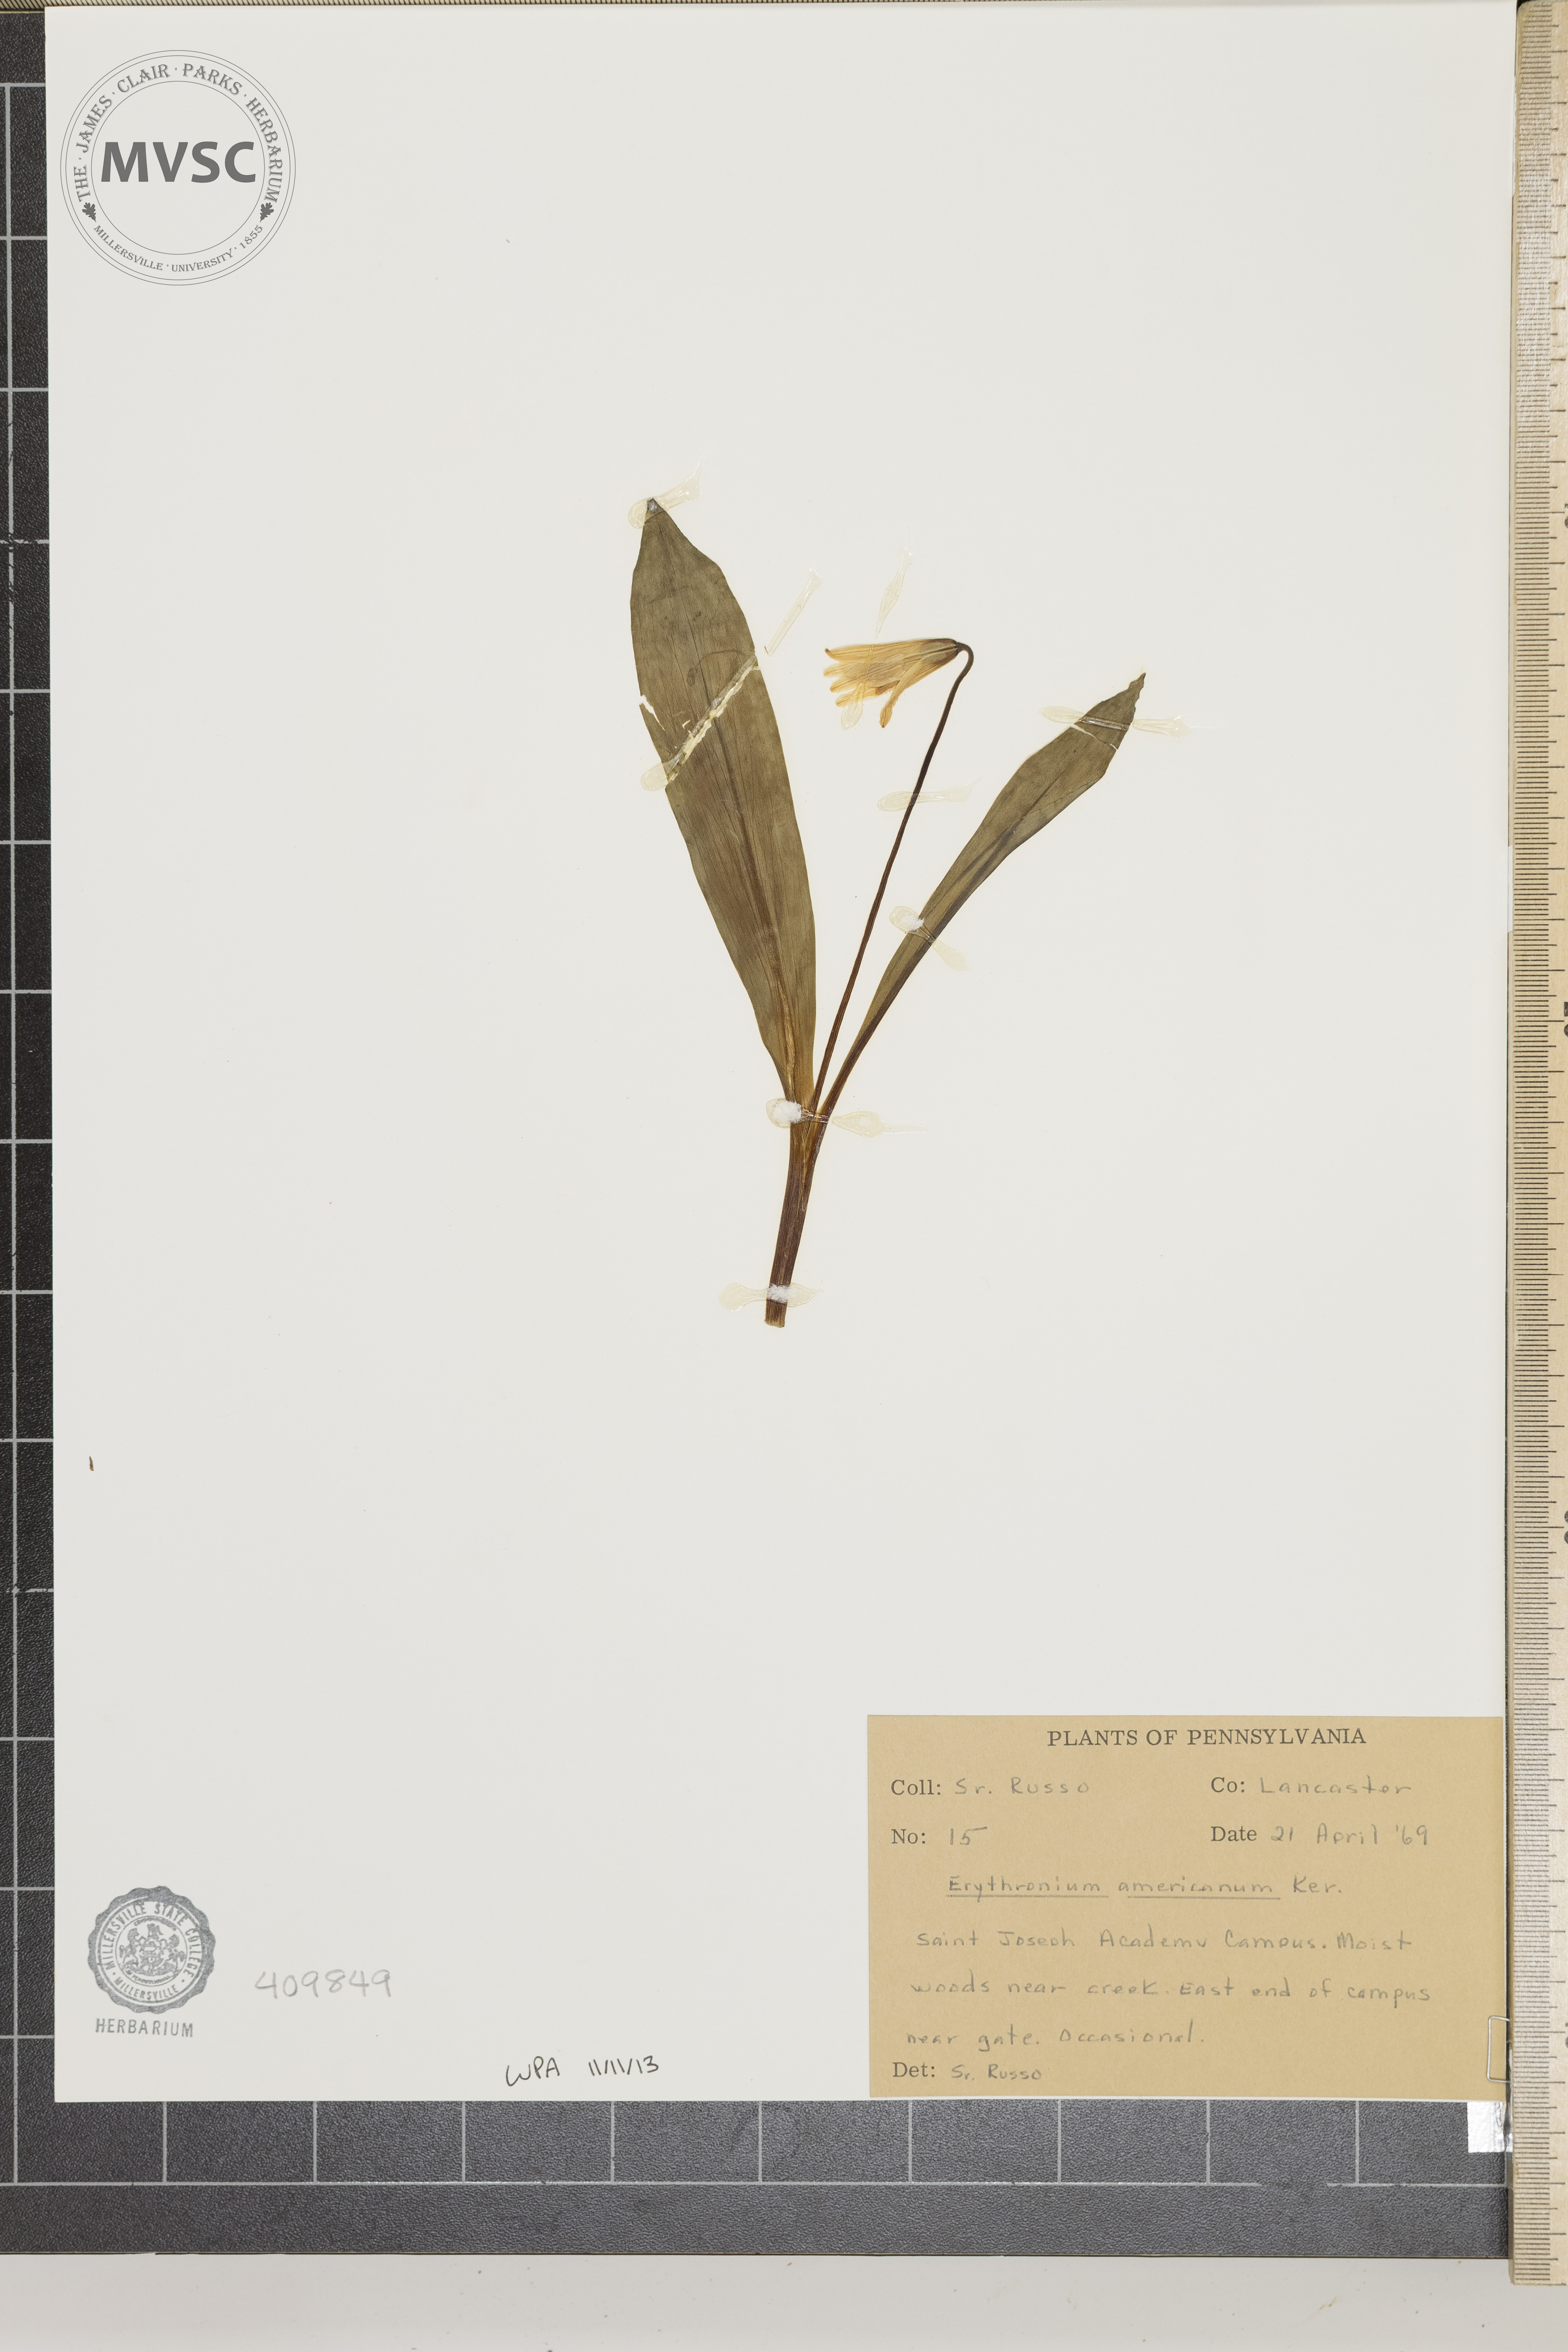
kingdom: Plantae
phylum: Tracheophyta
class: Liliopsida
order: Liliales
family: Liliaceae
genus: Erythronium
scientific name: Erythronium americanum
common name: Yellow adder's-tongue
